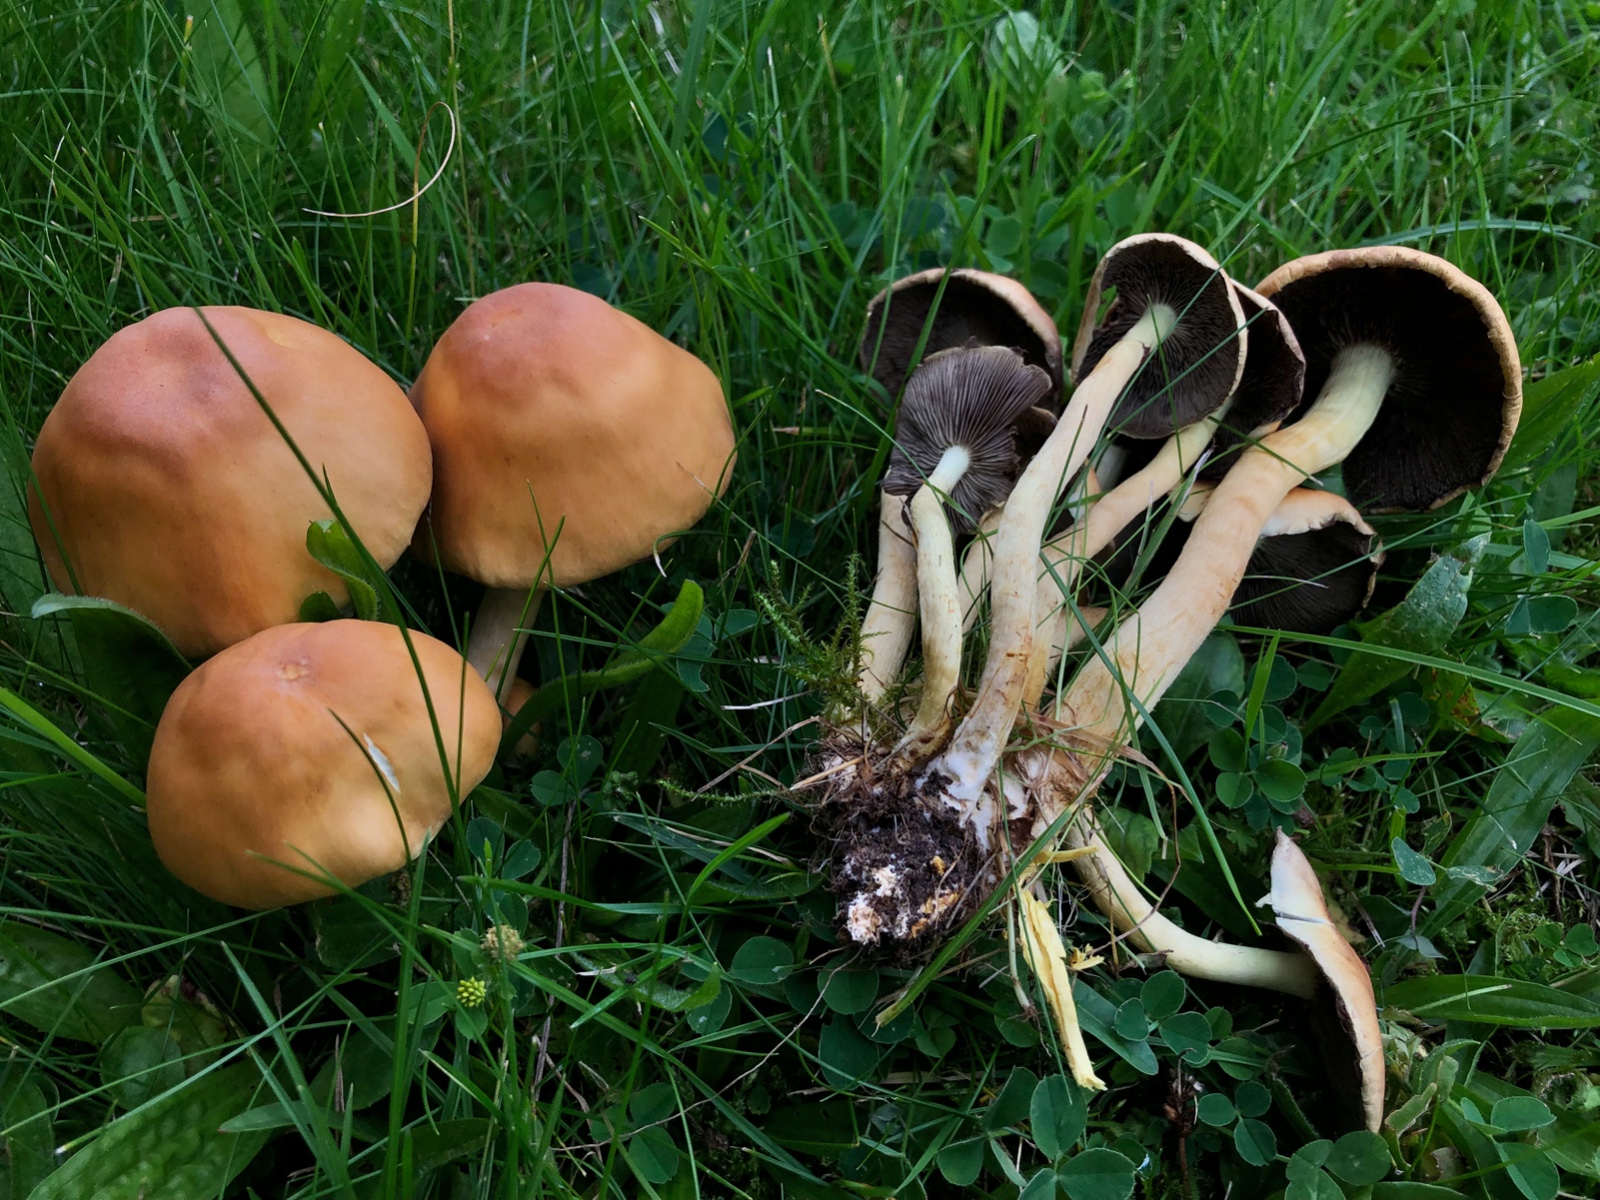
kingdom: Fungi
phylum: Basidiomycota
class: Agaricomycetes
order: Agaricales
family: Strophariaceae
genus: Hypholoma
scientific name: Hypholoma fasciculare
